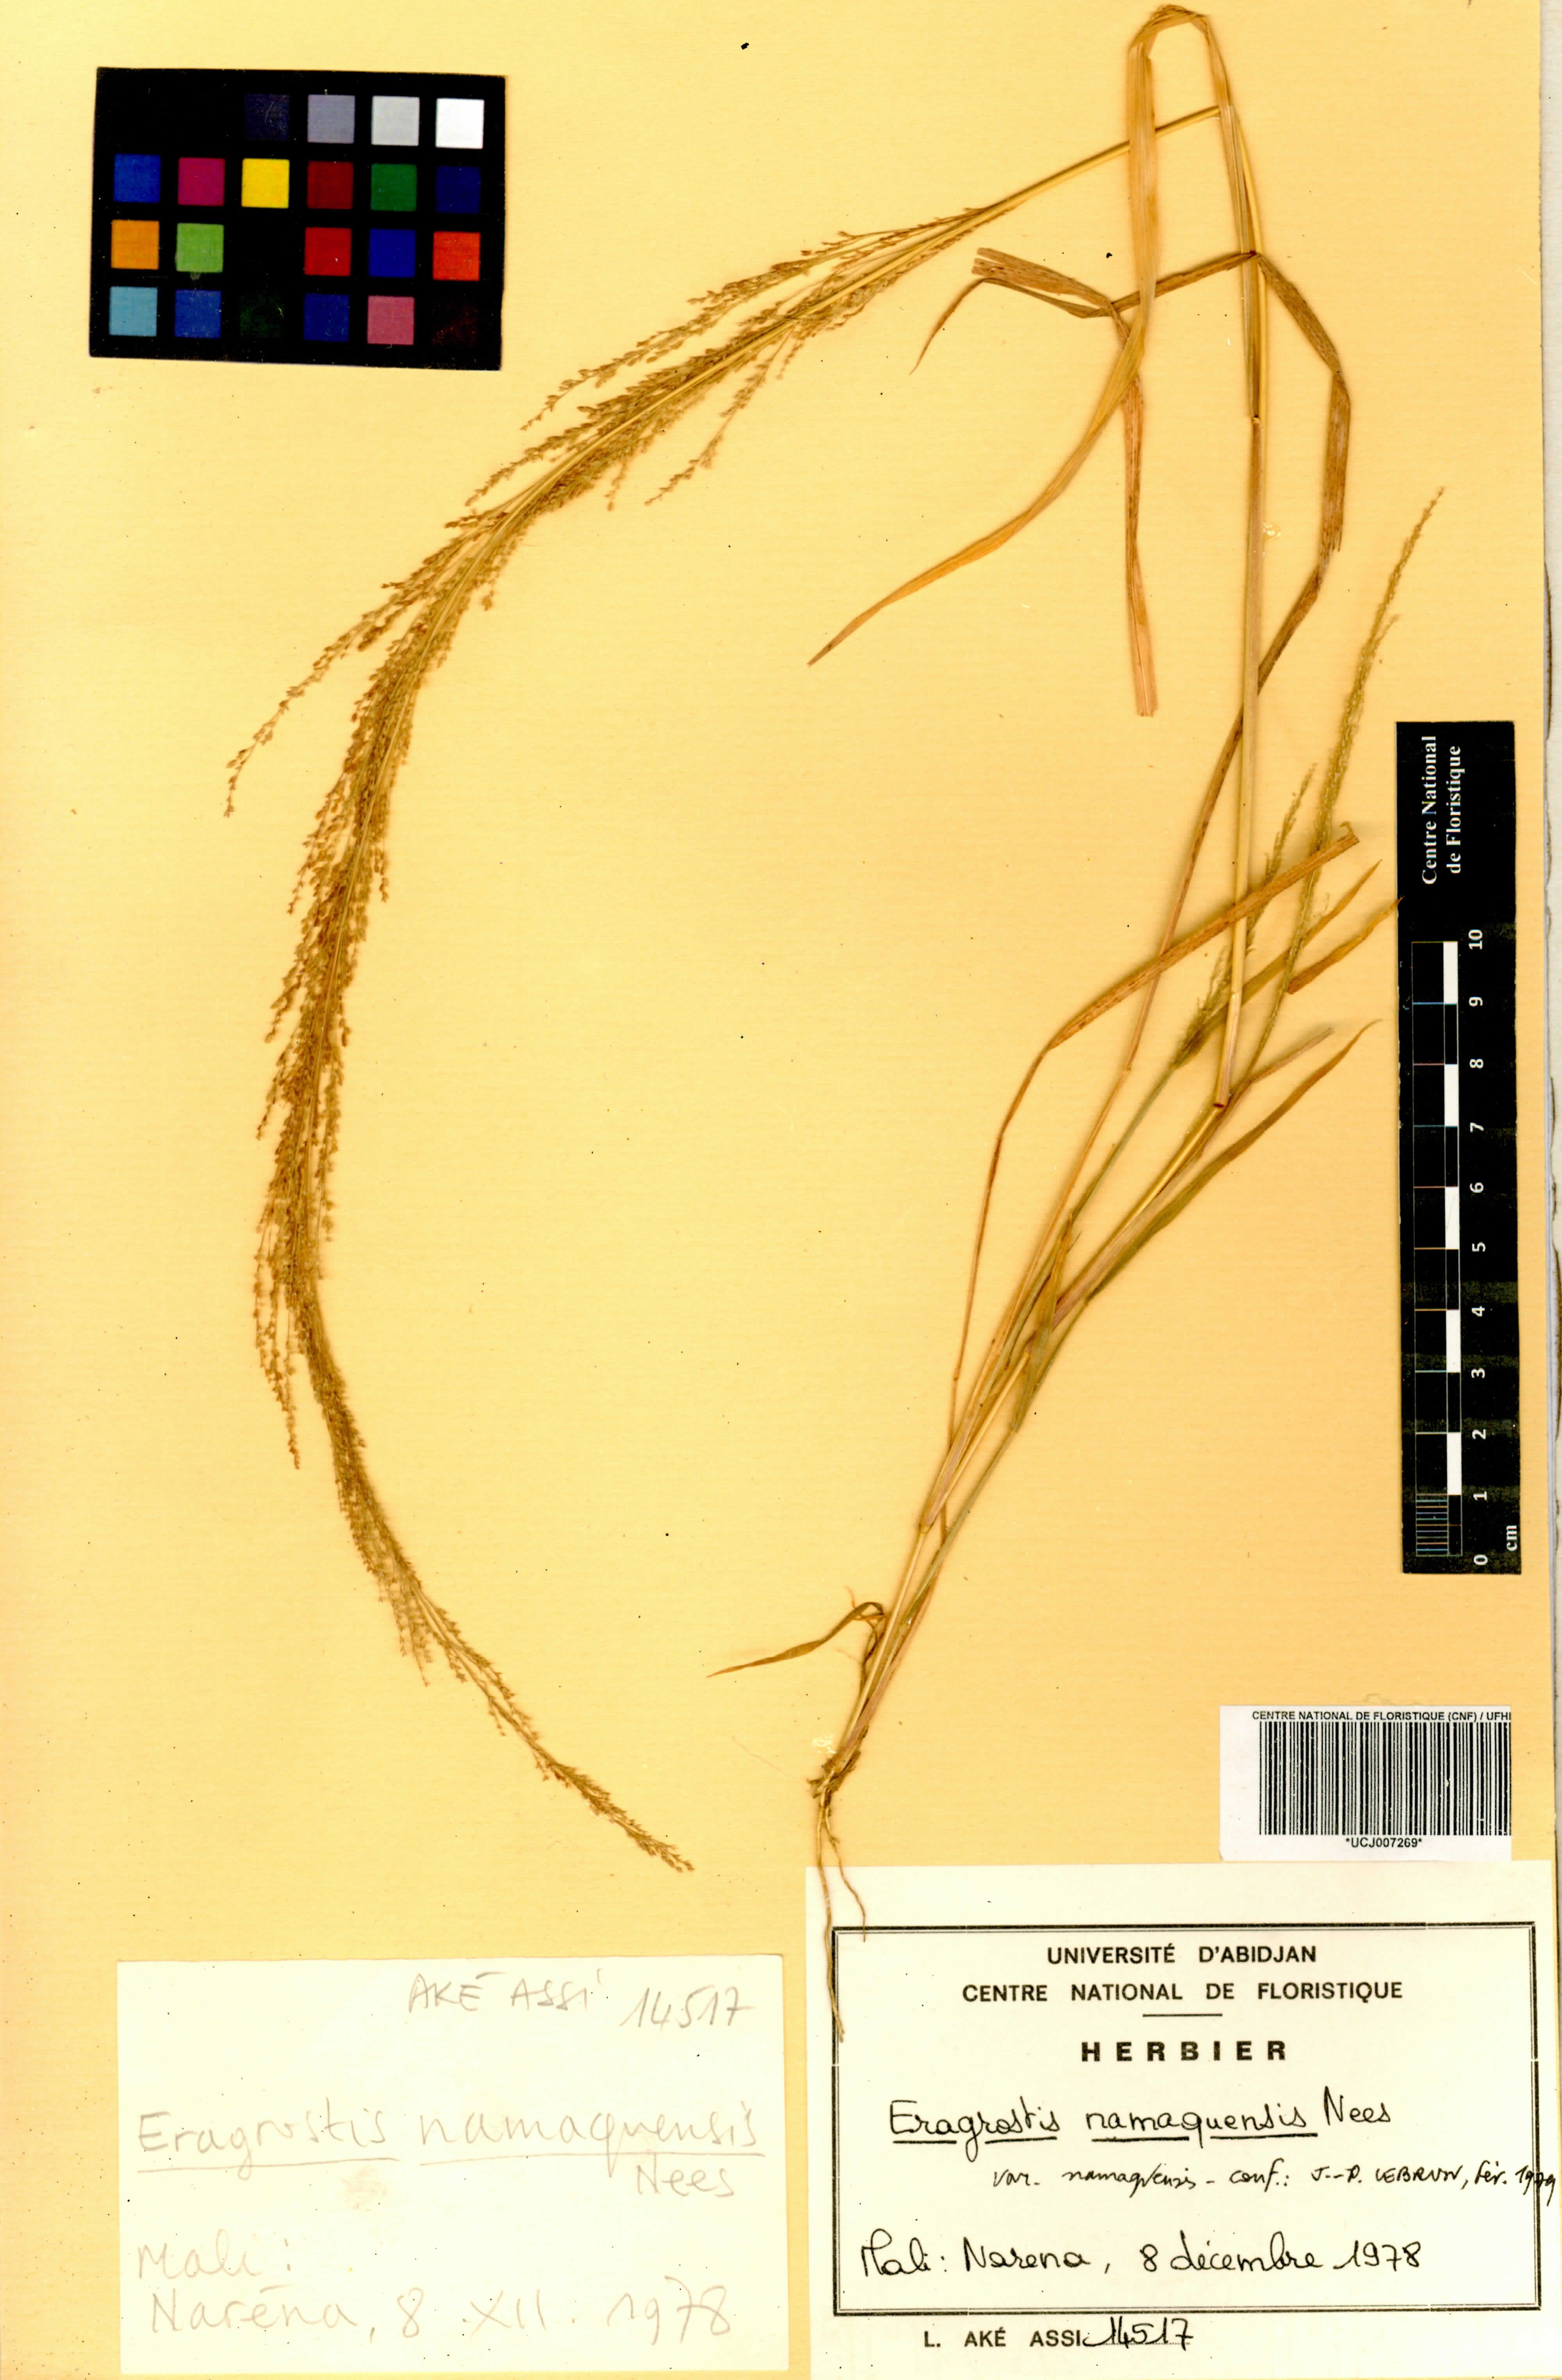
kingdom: Plantae
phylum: Tracheophyta
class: Liliopsida
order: Poales
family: Poaceae
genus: Eragrostis
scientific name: Eragrostis japonica
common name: Pond lovegrass
